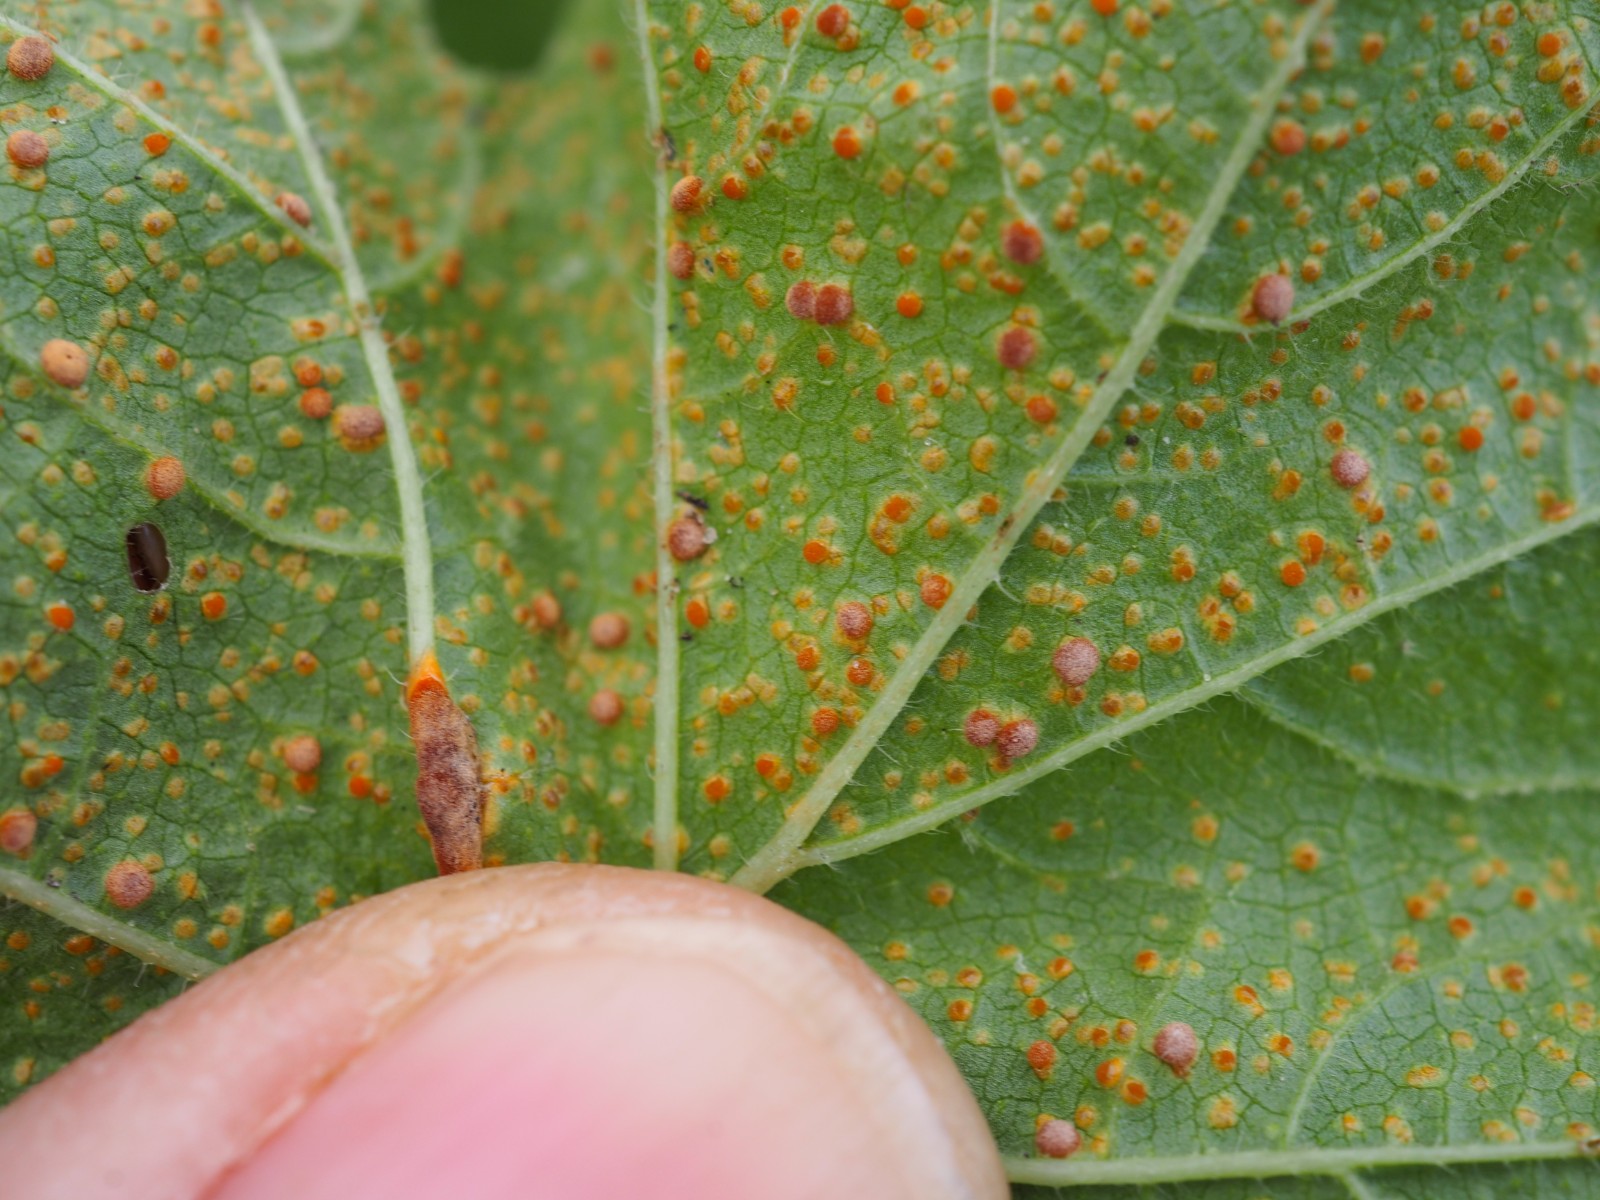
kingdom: Fungi
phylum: Basidiomycota
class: Pucciniomycetes
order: Pucciniales
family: Pucciniaceae
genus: Puccinia
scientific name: Puccinia malvacearum
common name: stokrose-tvecellerust
